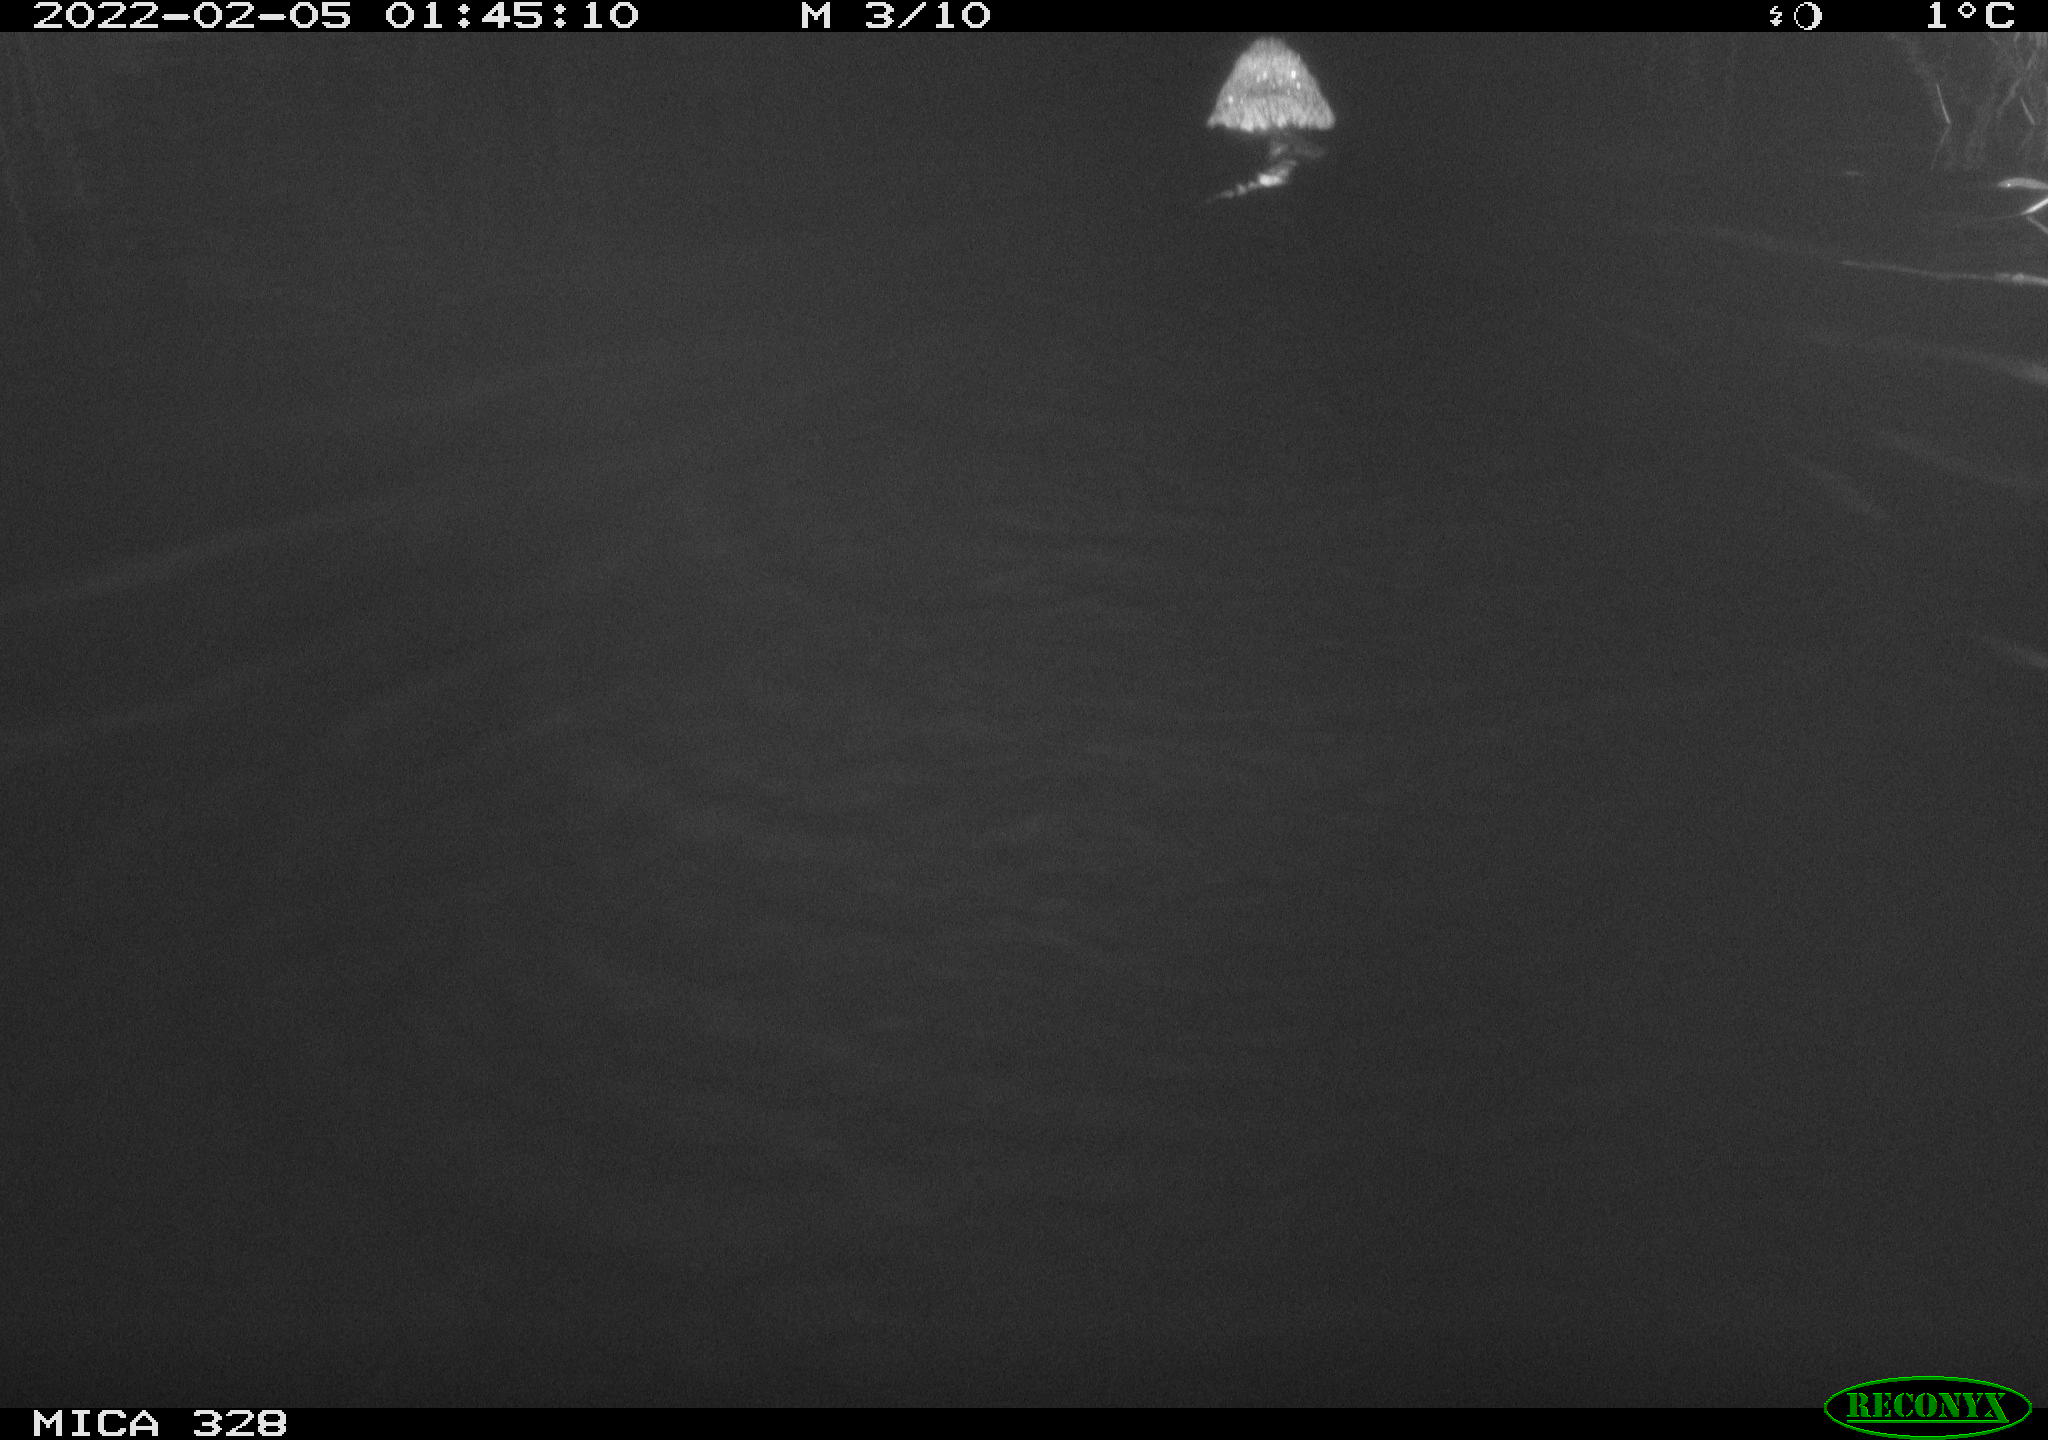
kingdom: Animalia
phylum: Chordata
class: Mammalia
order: Rodentia
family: Cricetidae
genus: Ondatra
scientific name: Ondatra zibethicus
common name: Muskrat
